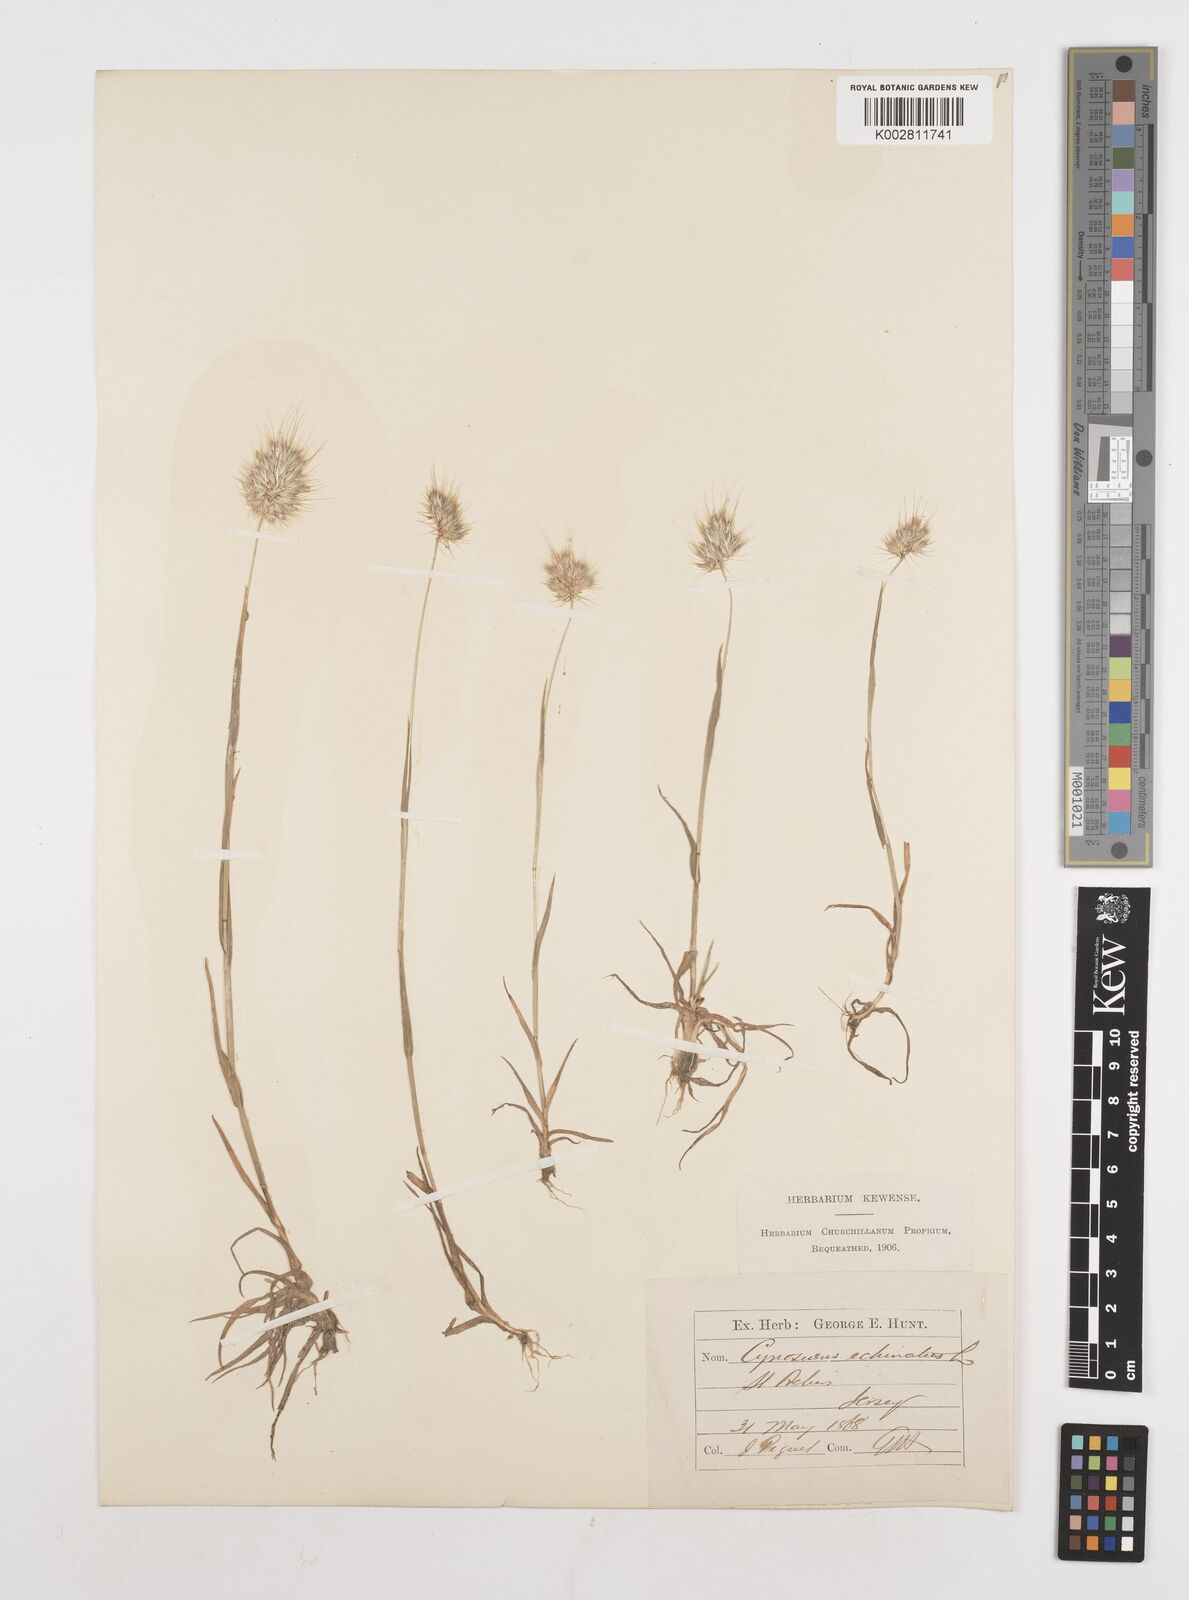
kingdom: Plantae
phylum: Tracheophyta
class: Liliopsida
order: Poales
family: Poaceae
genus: Cynosurus
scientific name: Cynosurus echinatus
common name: Rough dog's-tail
